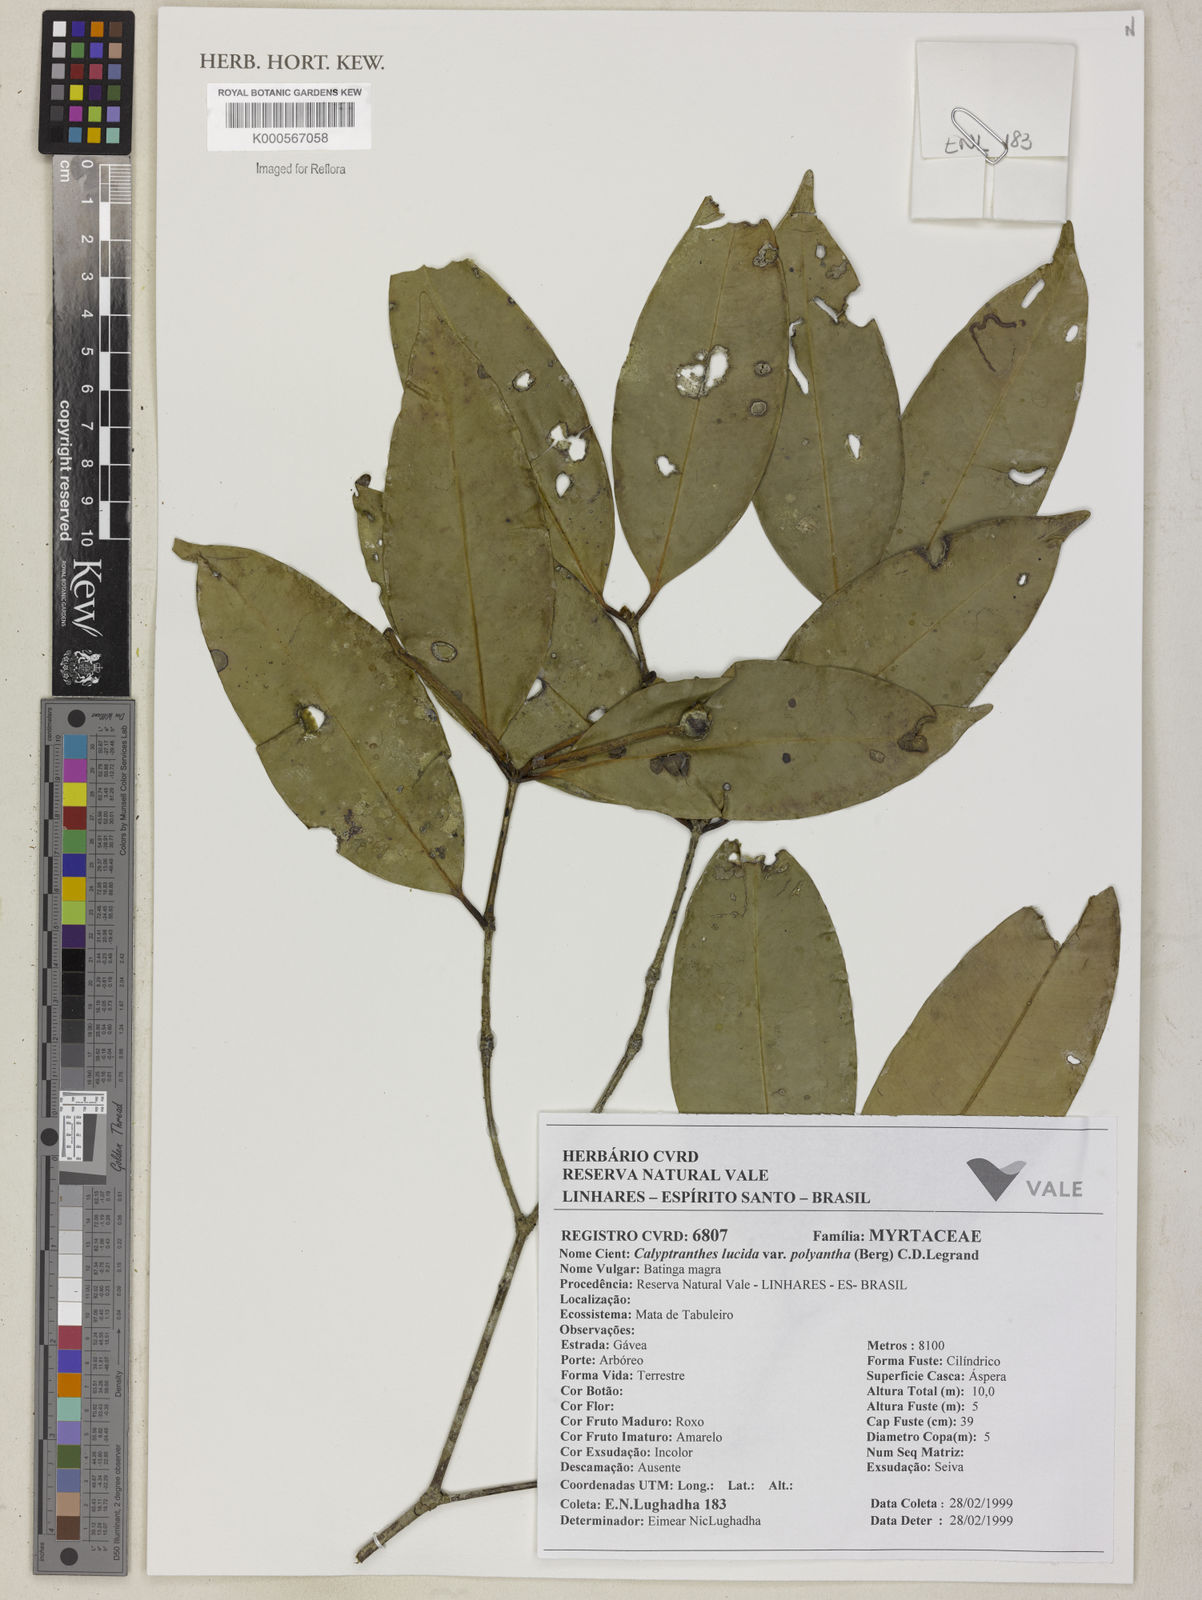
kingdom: Plantae
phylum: Tracheophyta
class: Magnoliopsida
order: Myrtales
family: Myrtaceae
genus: Myrcia
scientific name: Myrcia neolucida
